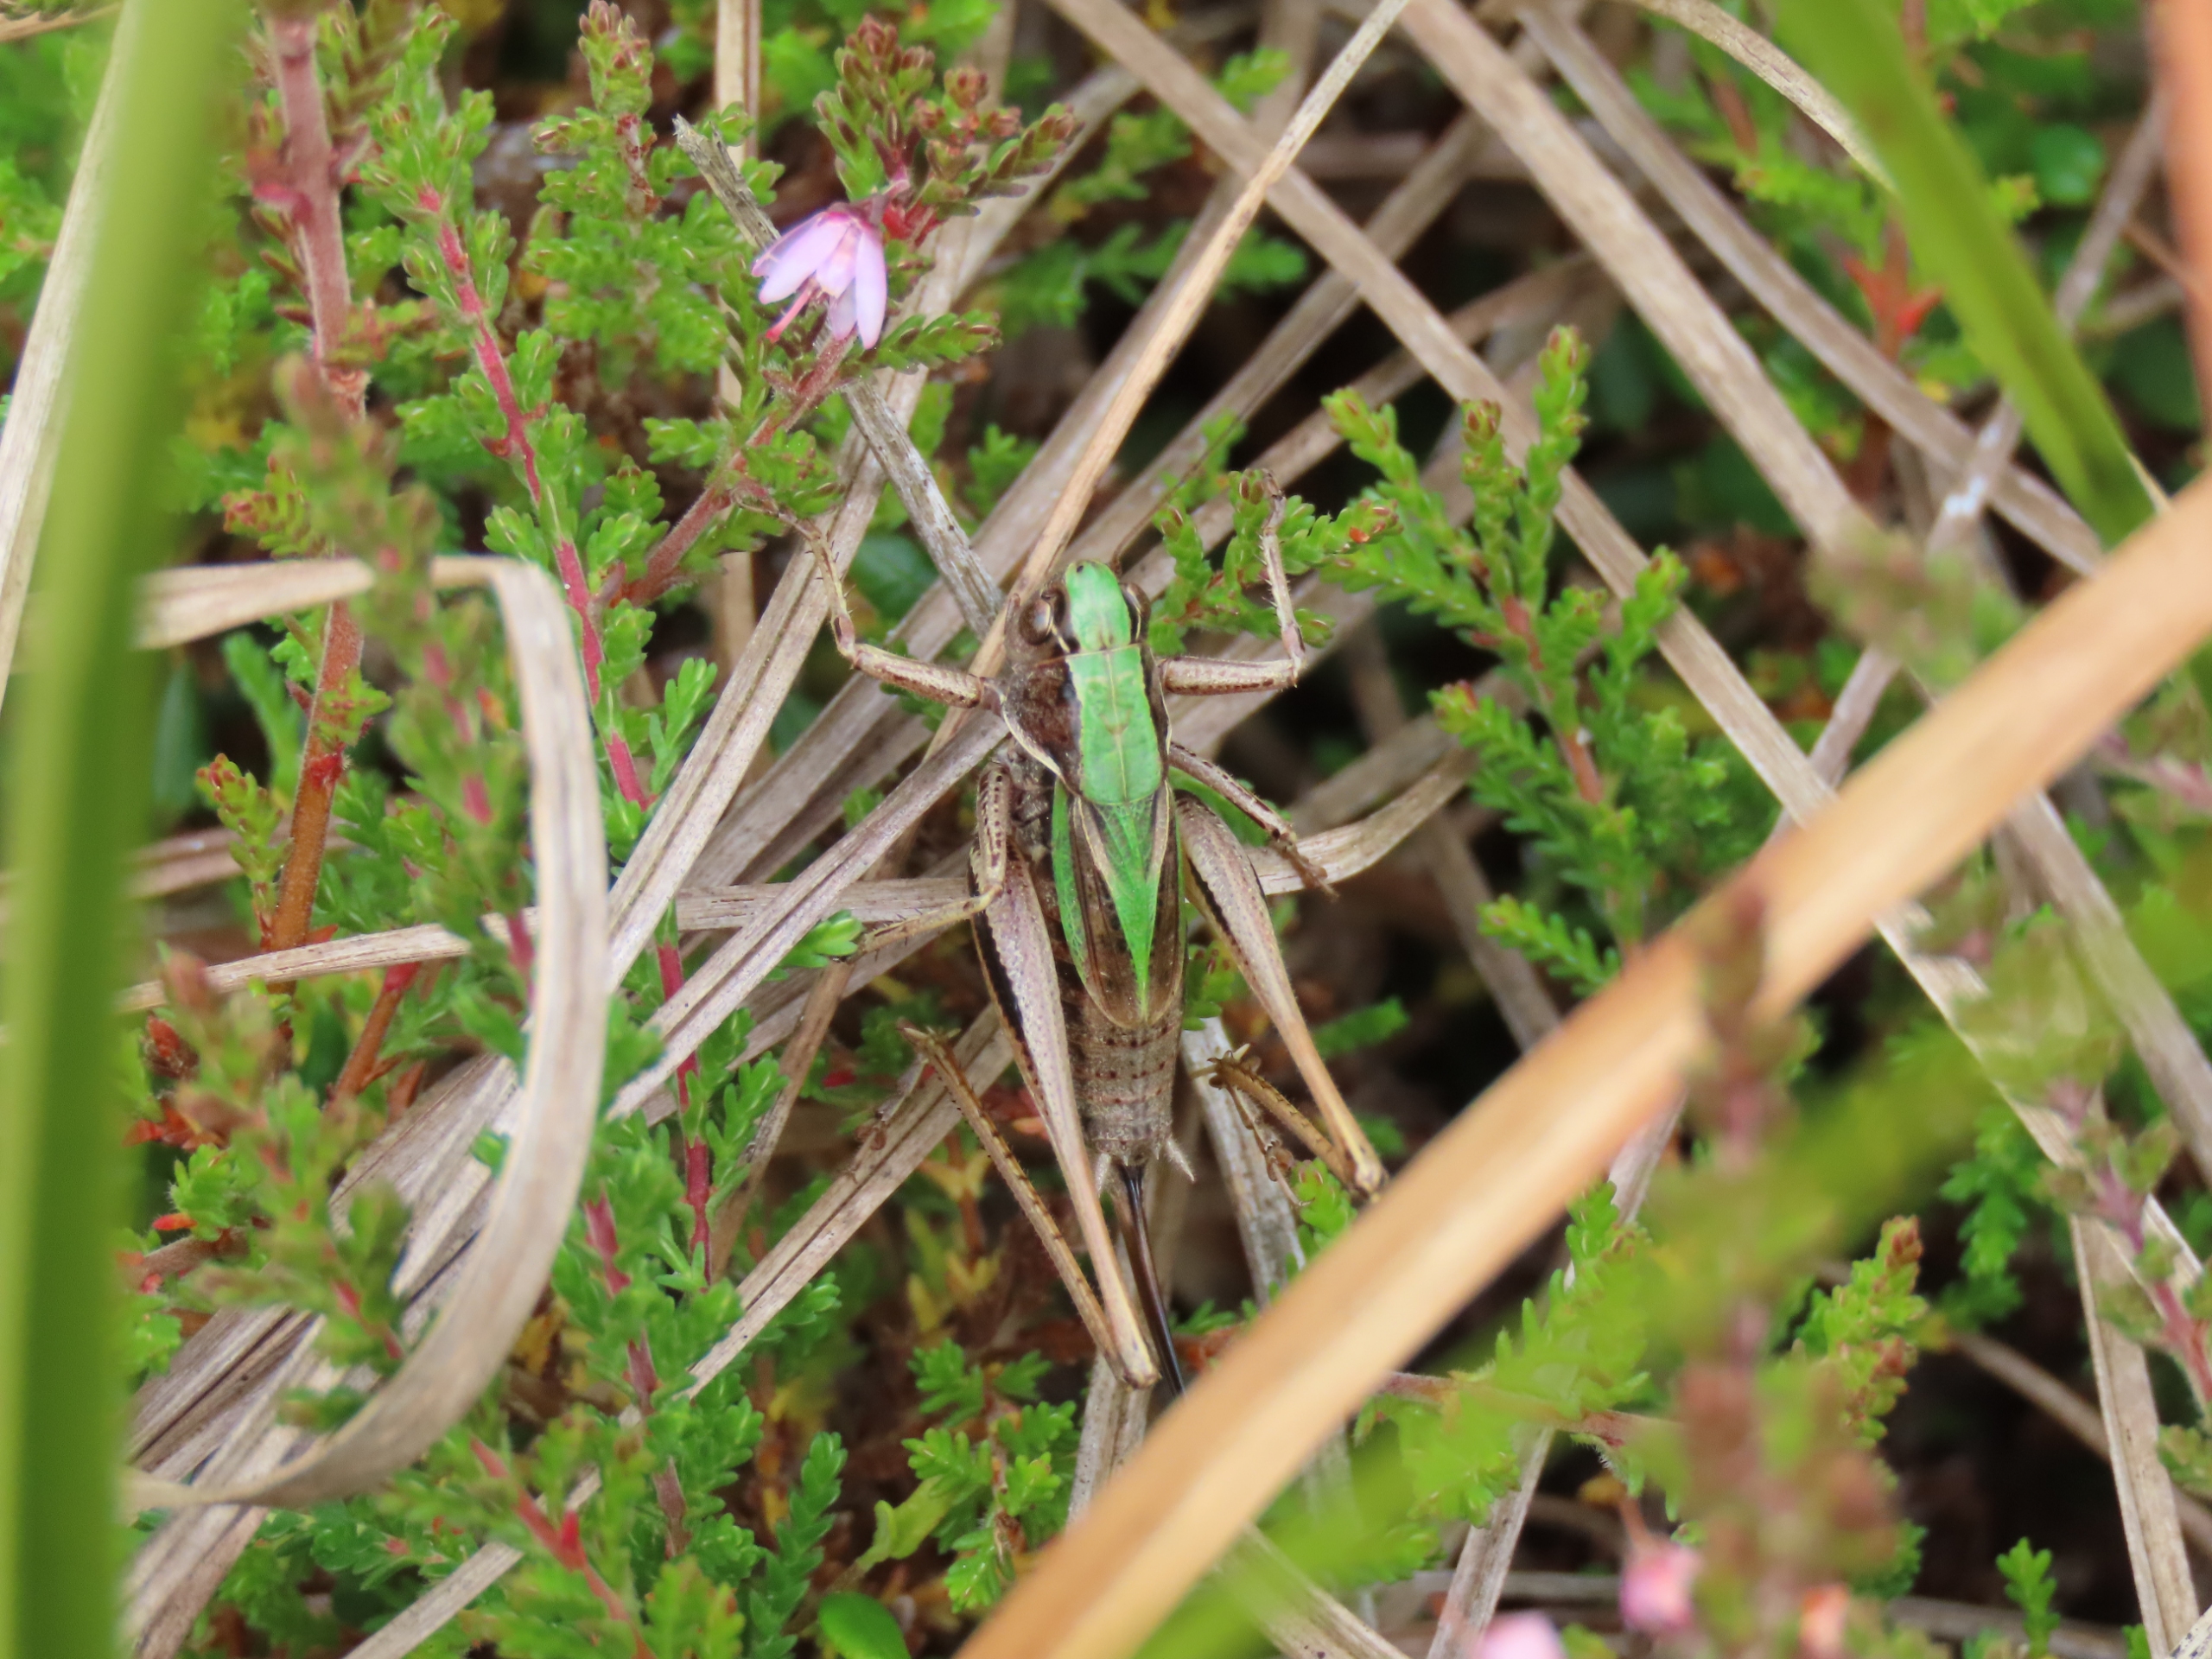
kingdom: Animalia
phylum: Arthropoda
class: Insecta
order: Orthoptera
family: Tettigoniidae
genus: Metrioptera
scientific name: Metrioptera brachyptera
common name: Hedegræshoppe
